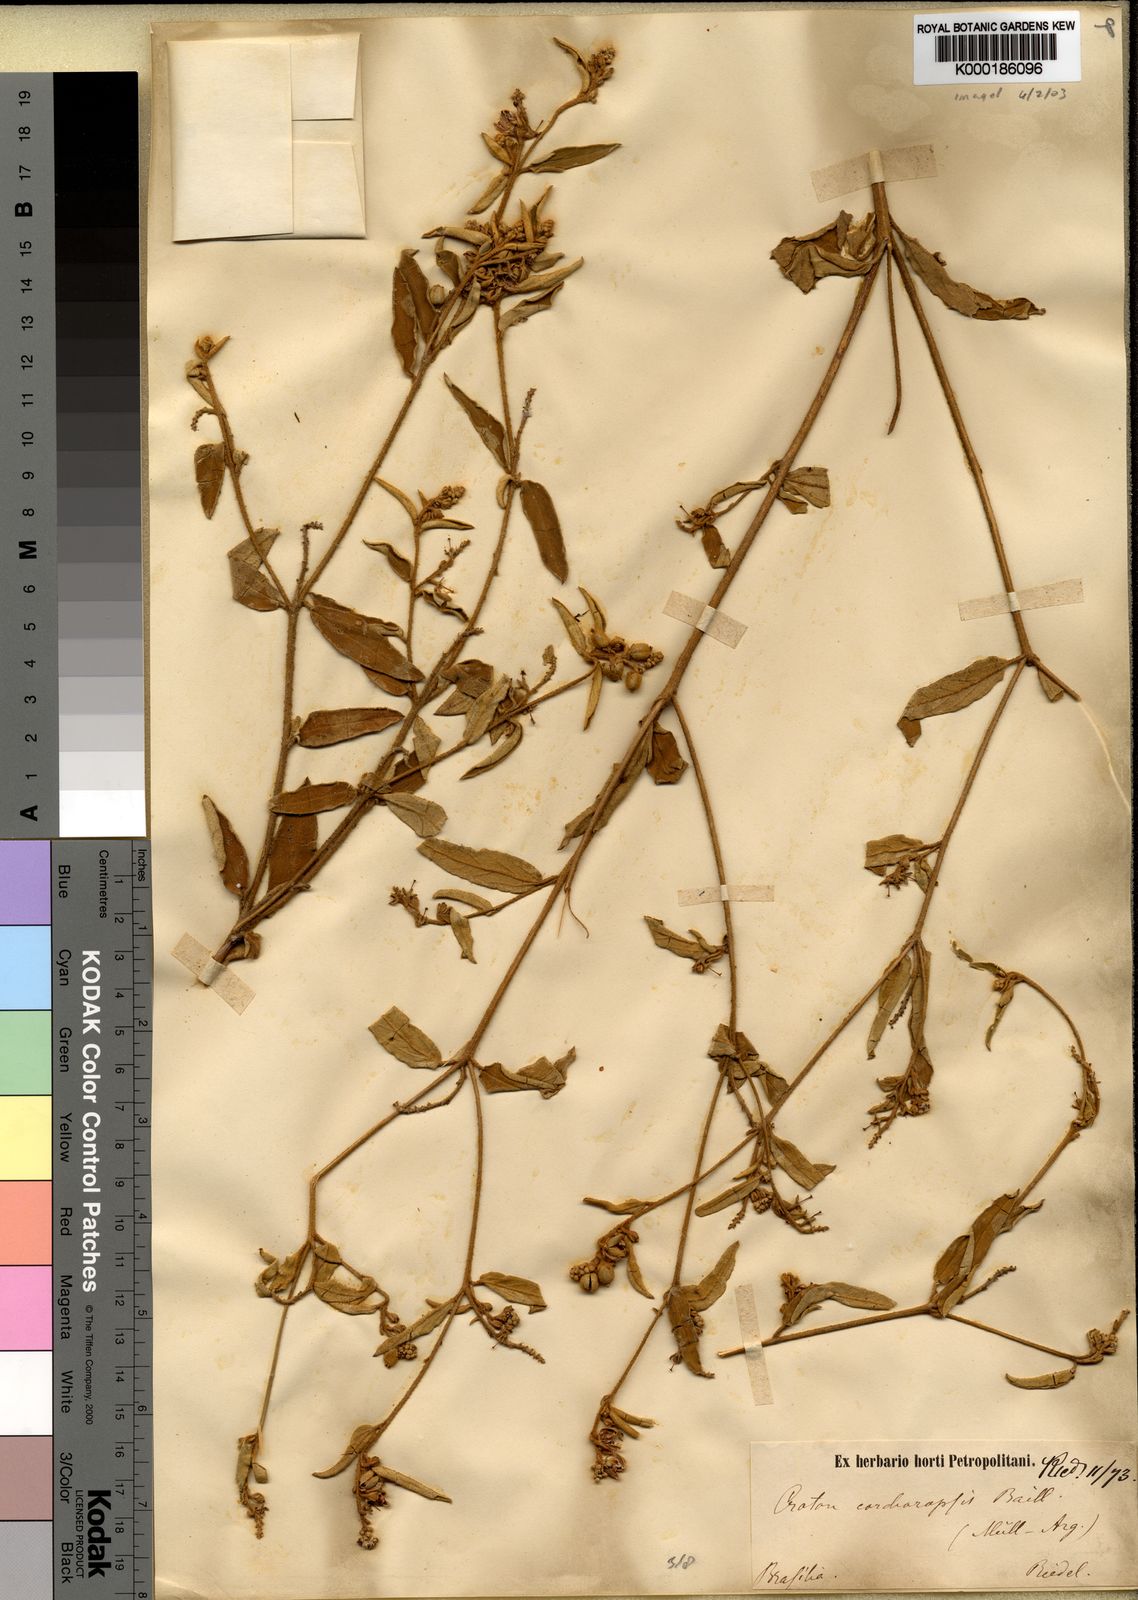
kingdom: Plantae
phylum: Tracheophyta
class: Magnoliopsida
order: Malpighiales
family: Euphorbiaceae
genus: Croton
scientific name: Croton pedicellatus
